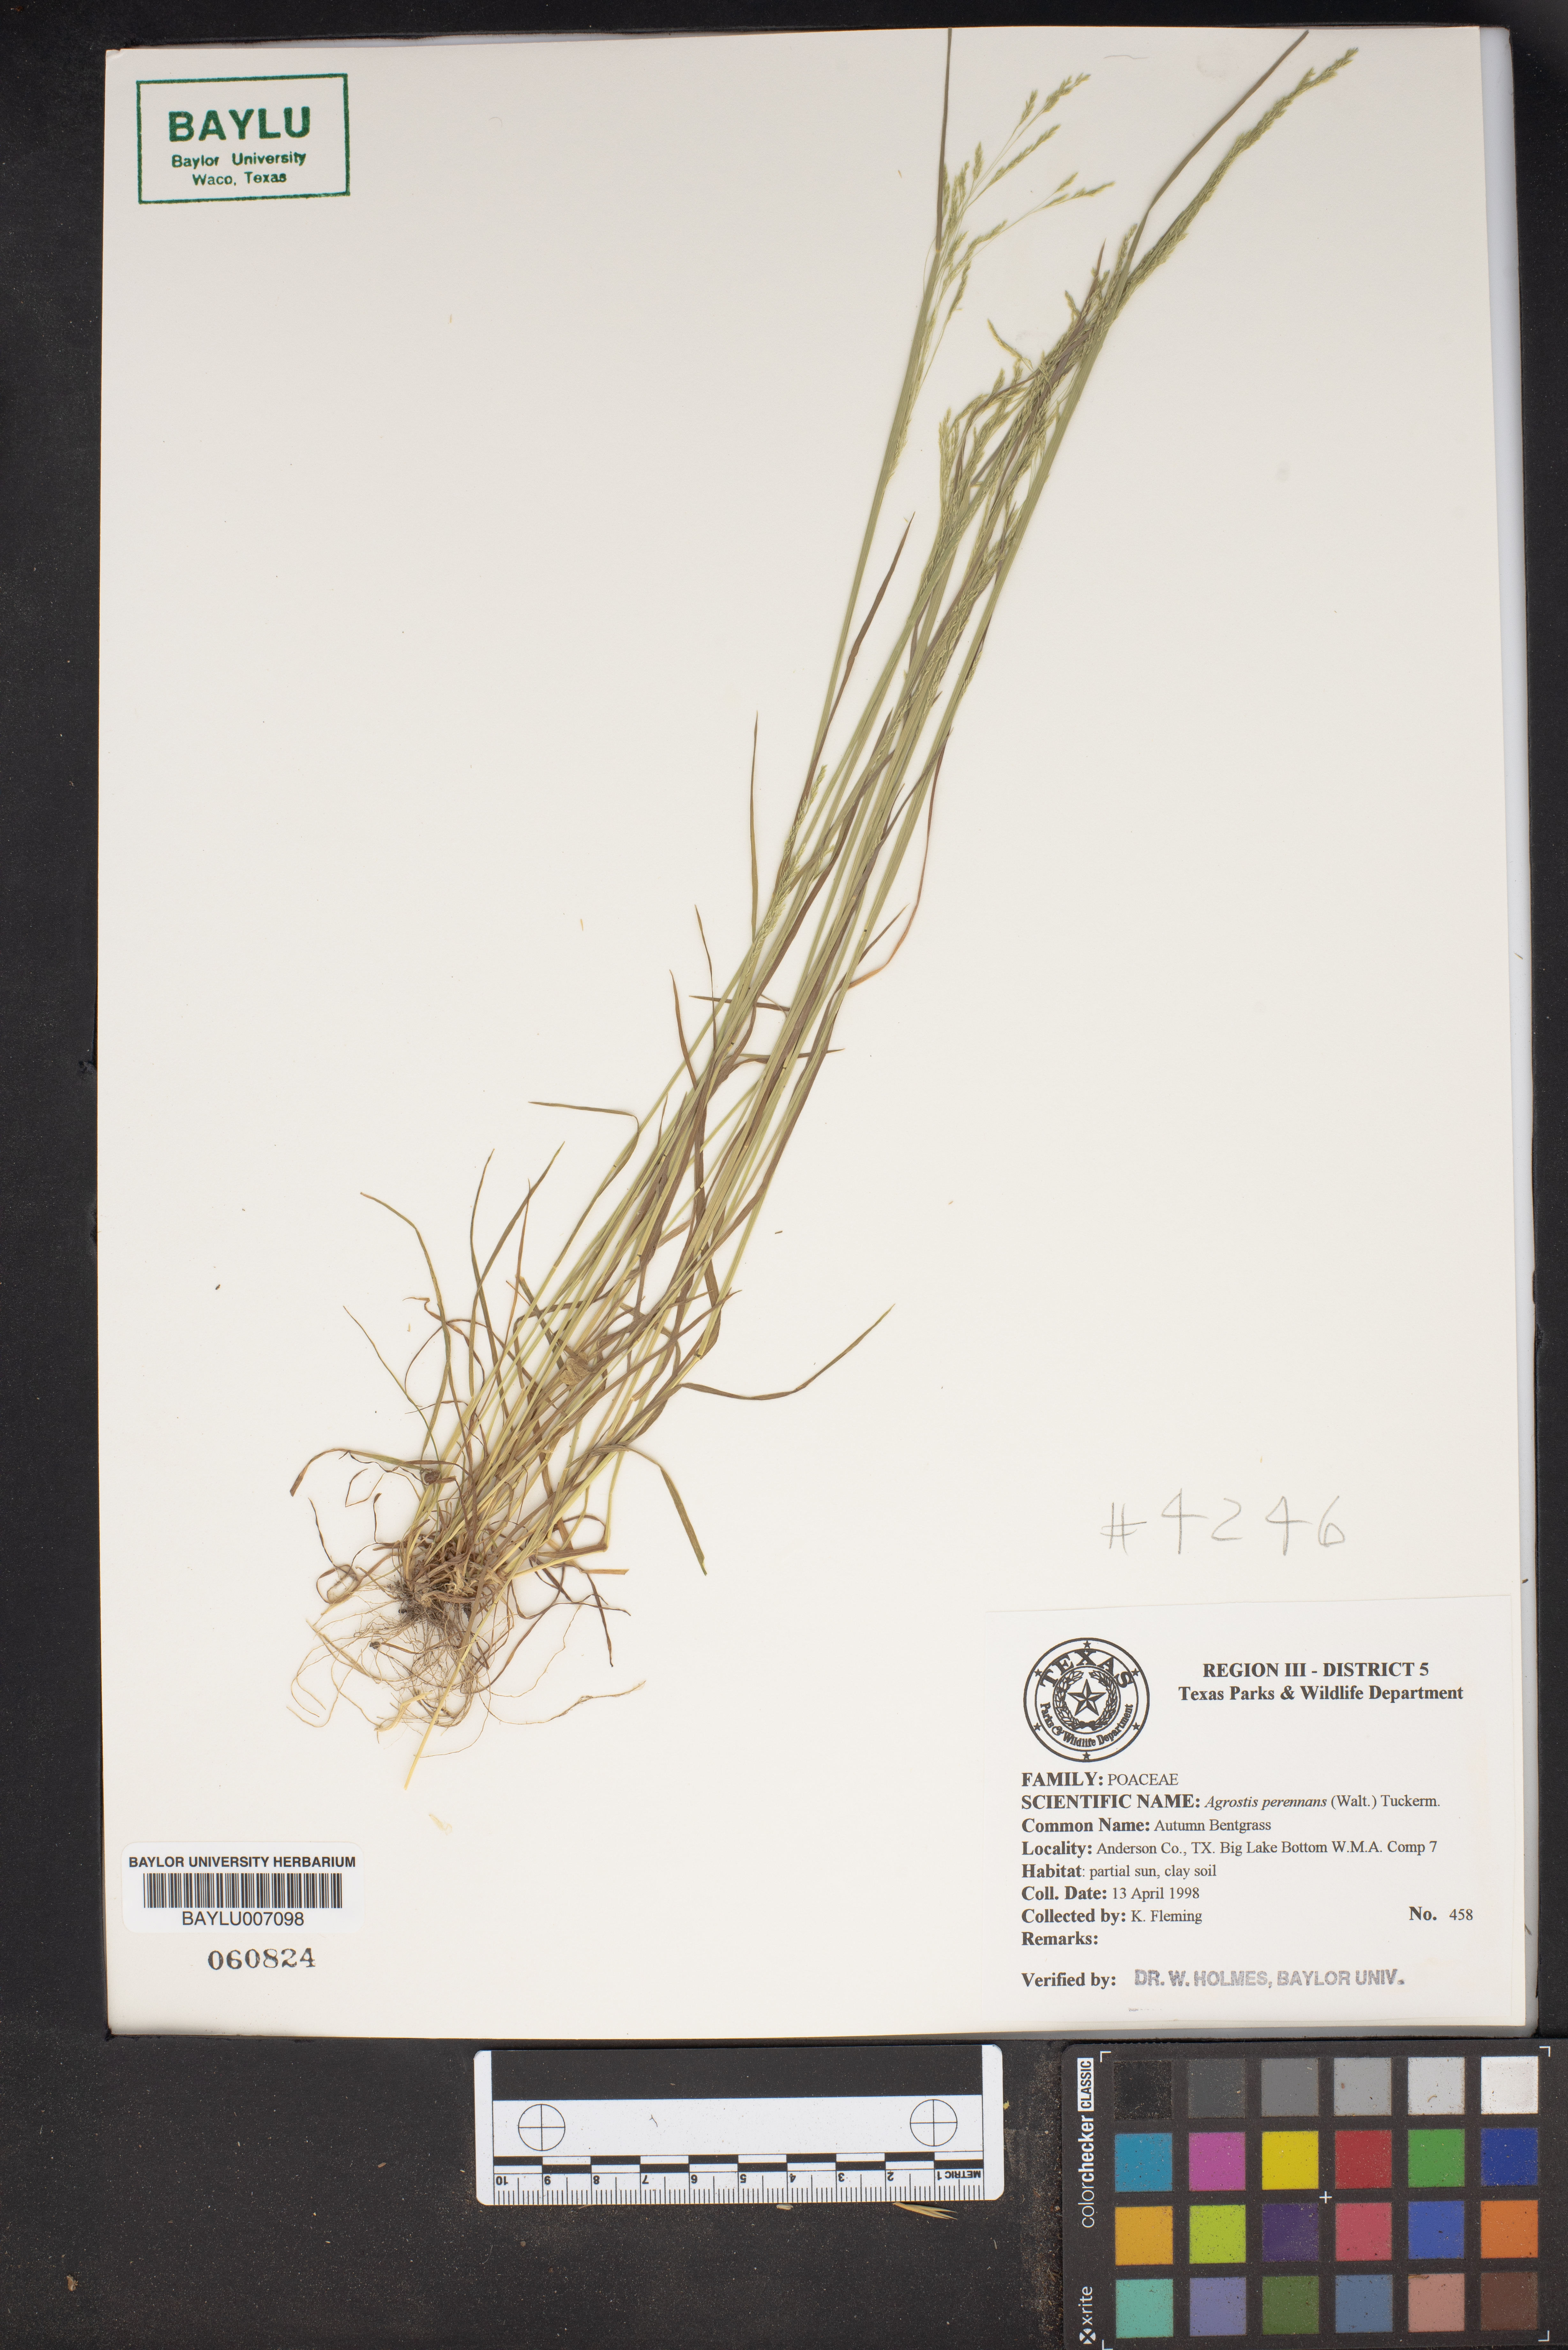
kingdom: Plantae
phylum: Tracheophyta
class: Liliopsida
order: Poales
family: Poaceae
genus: Agrostis
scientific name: Agrostis perennans
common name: Autumn bent
